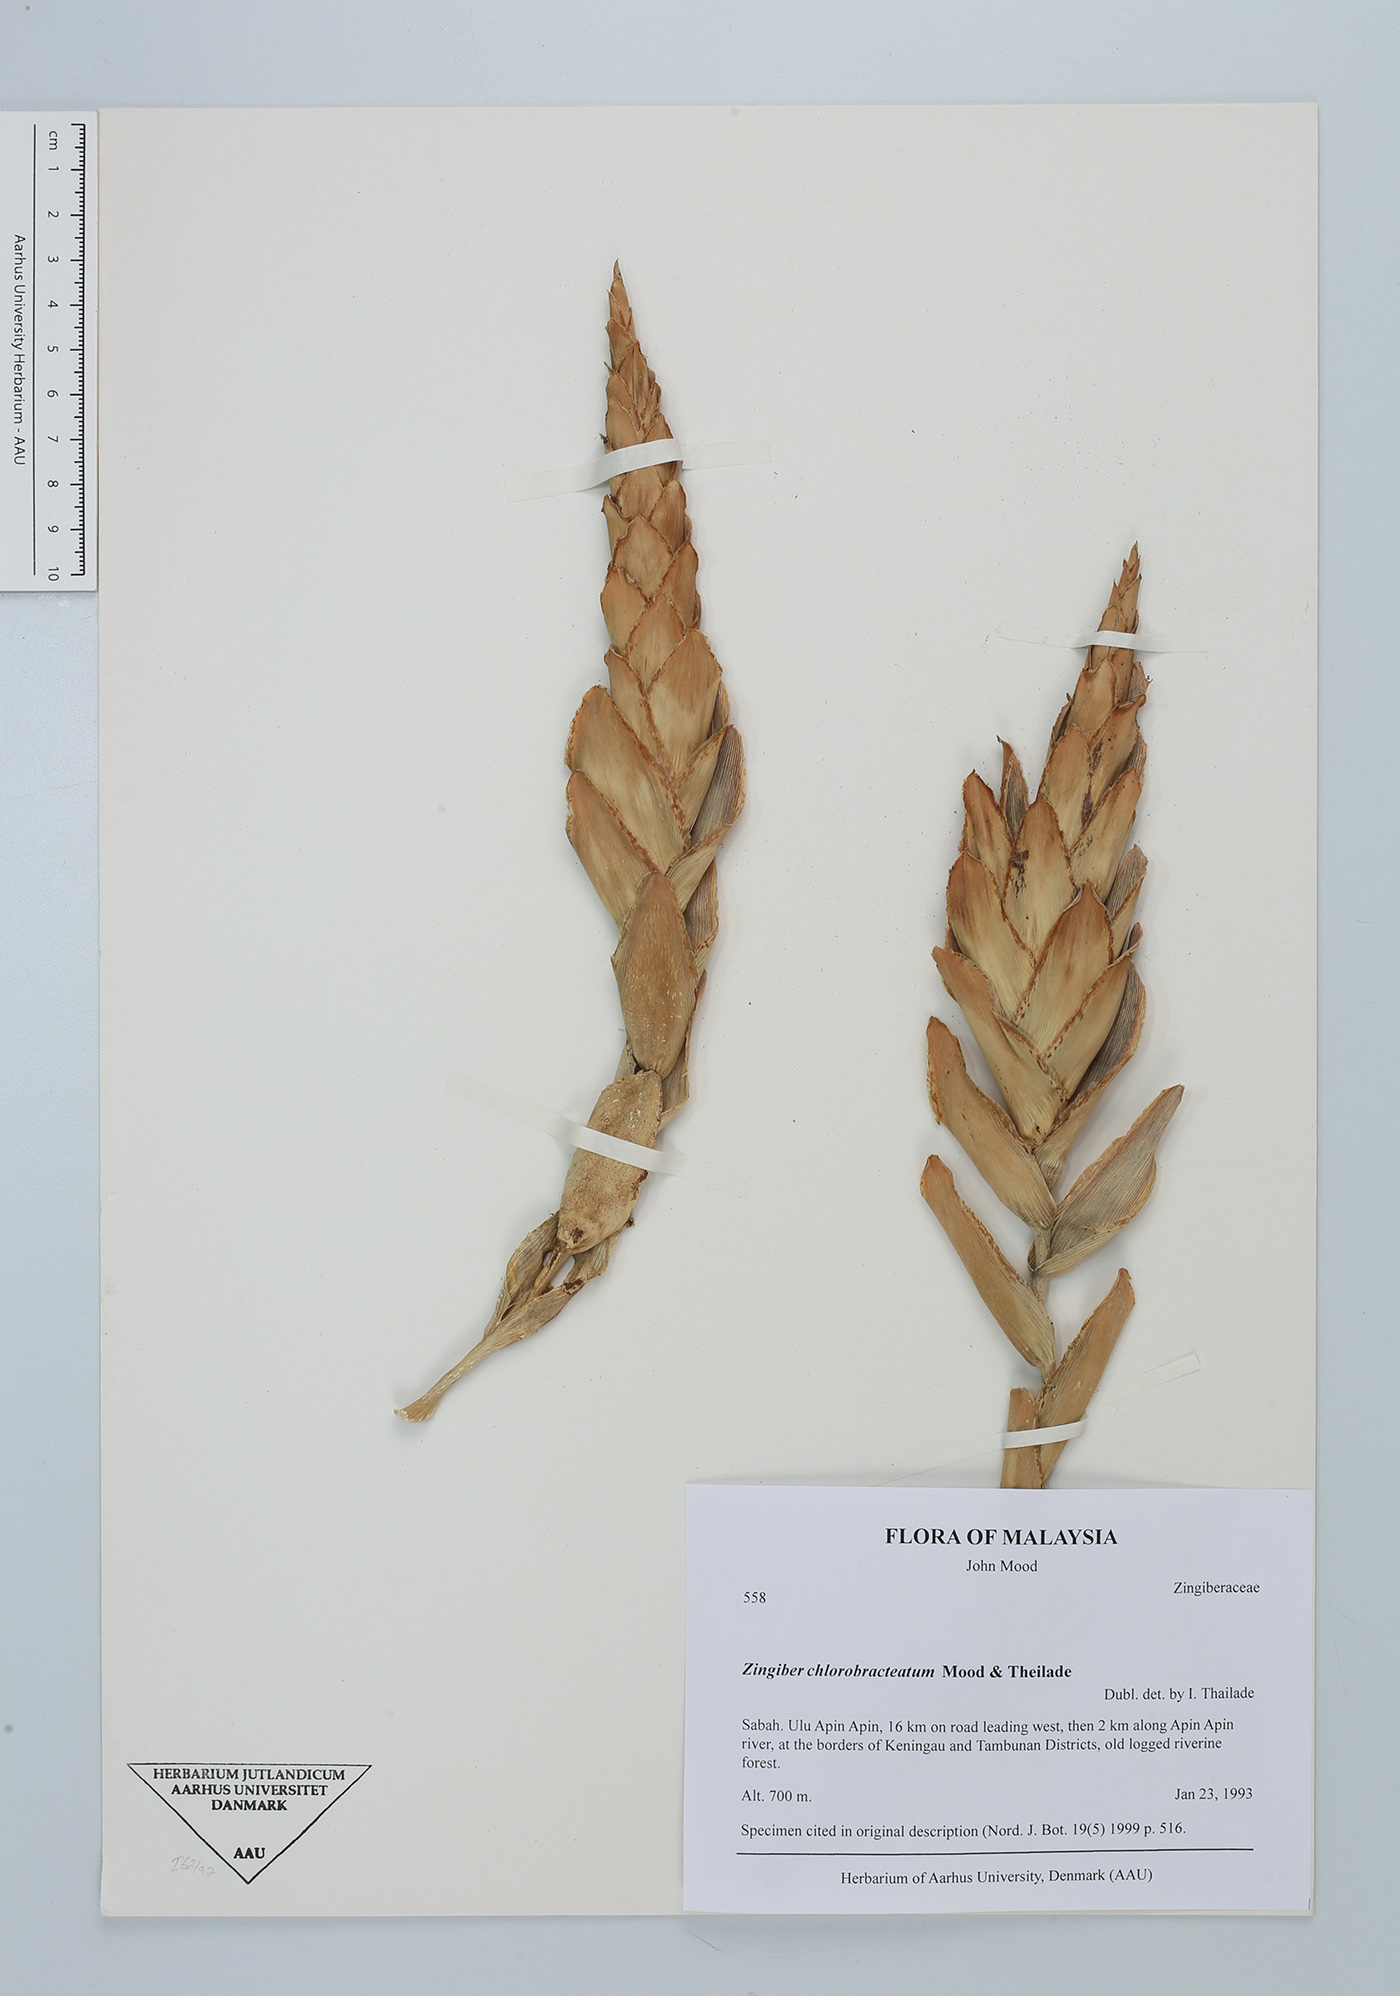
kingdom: Plantae
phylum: Tracheophyta
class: Liliopsida
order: Zingiberales
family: Zingiberaceae
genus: Zingiber
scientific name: Zingiber chlorobracteatum
